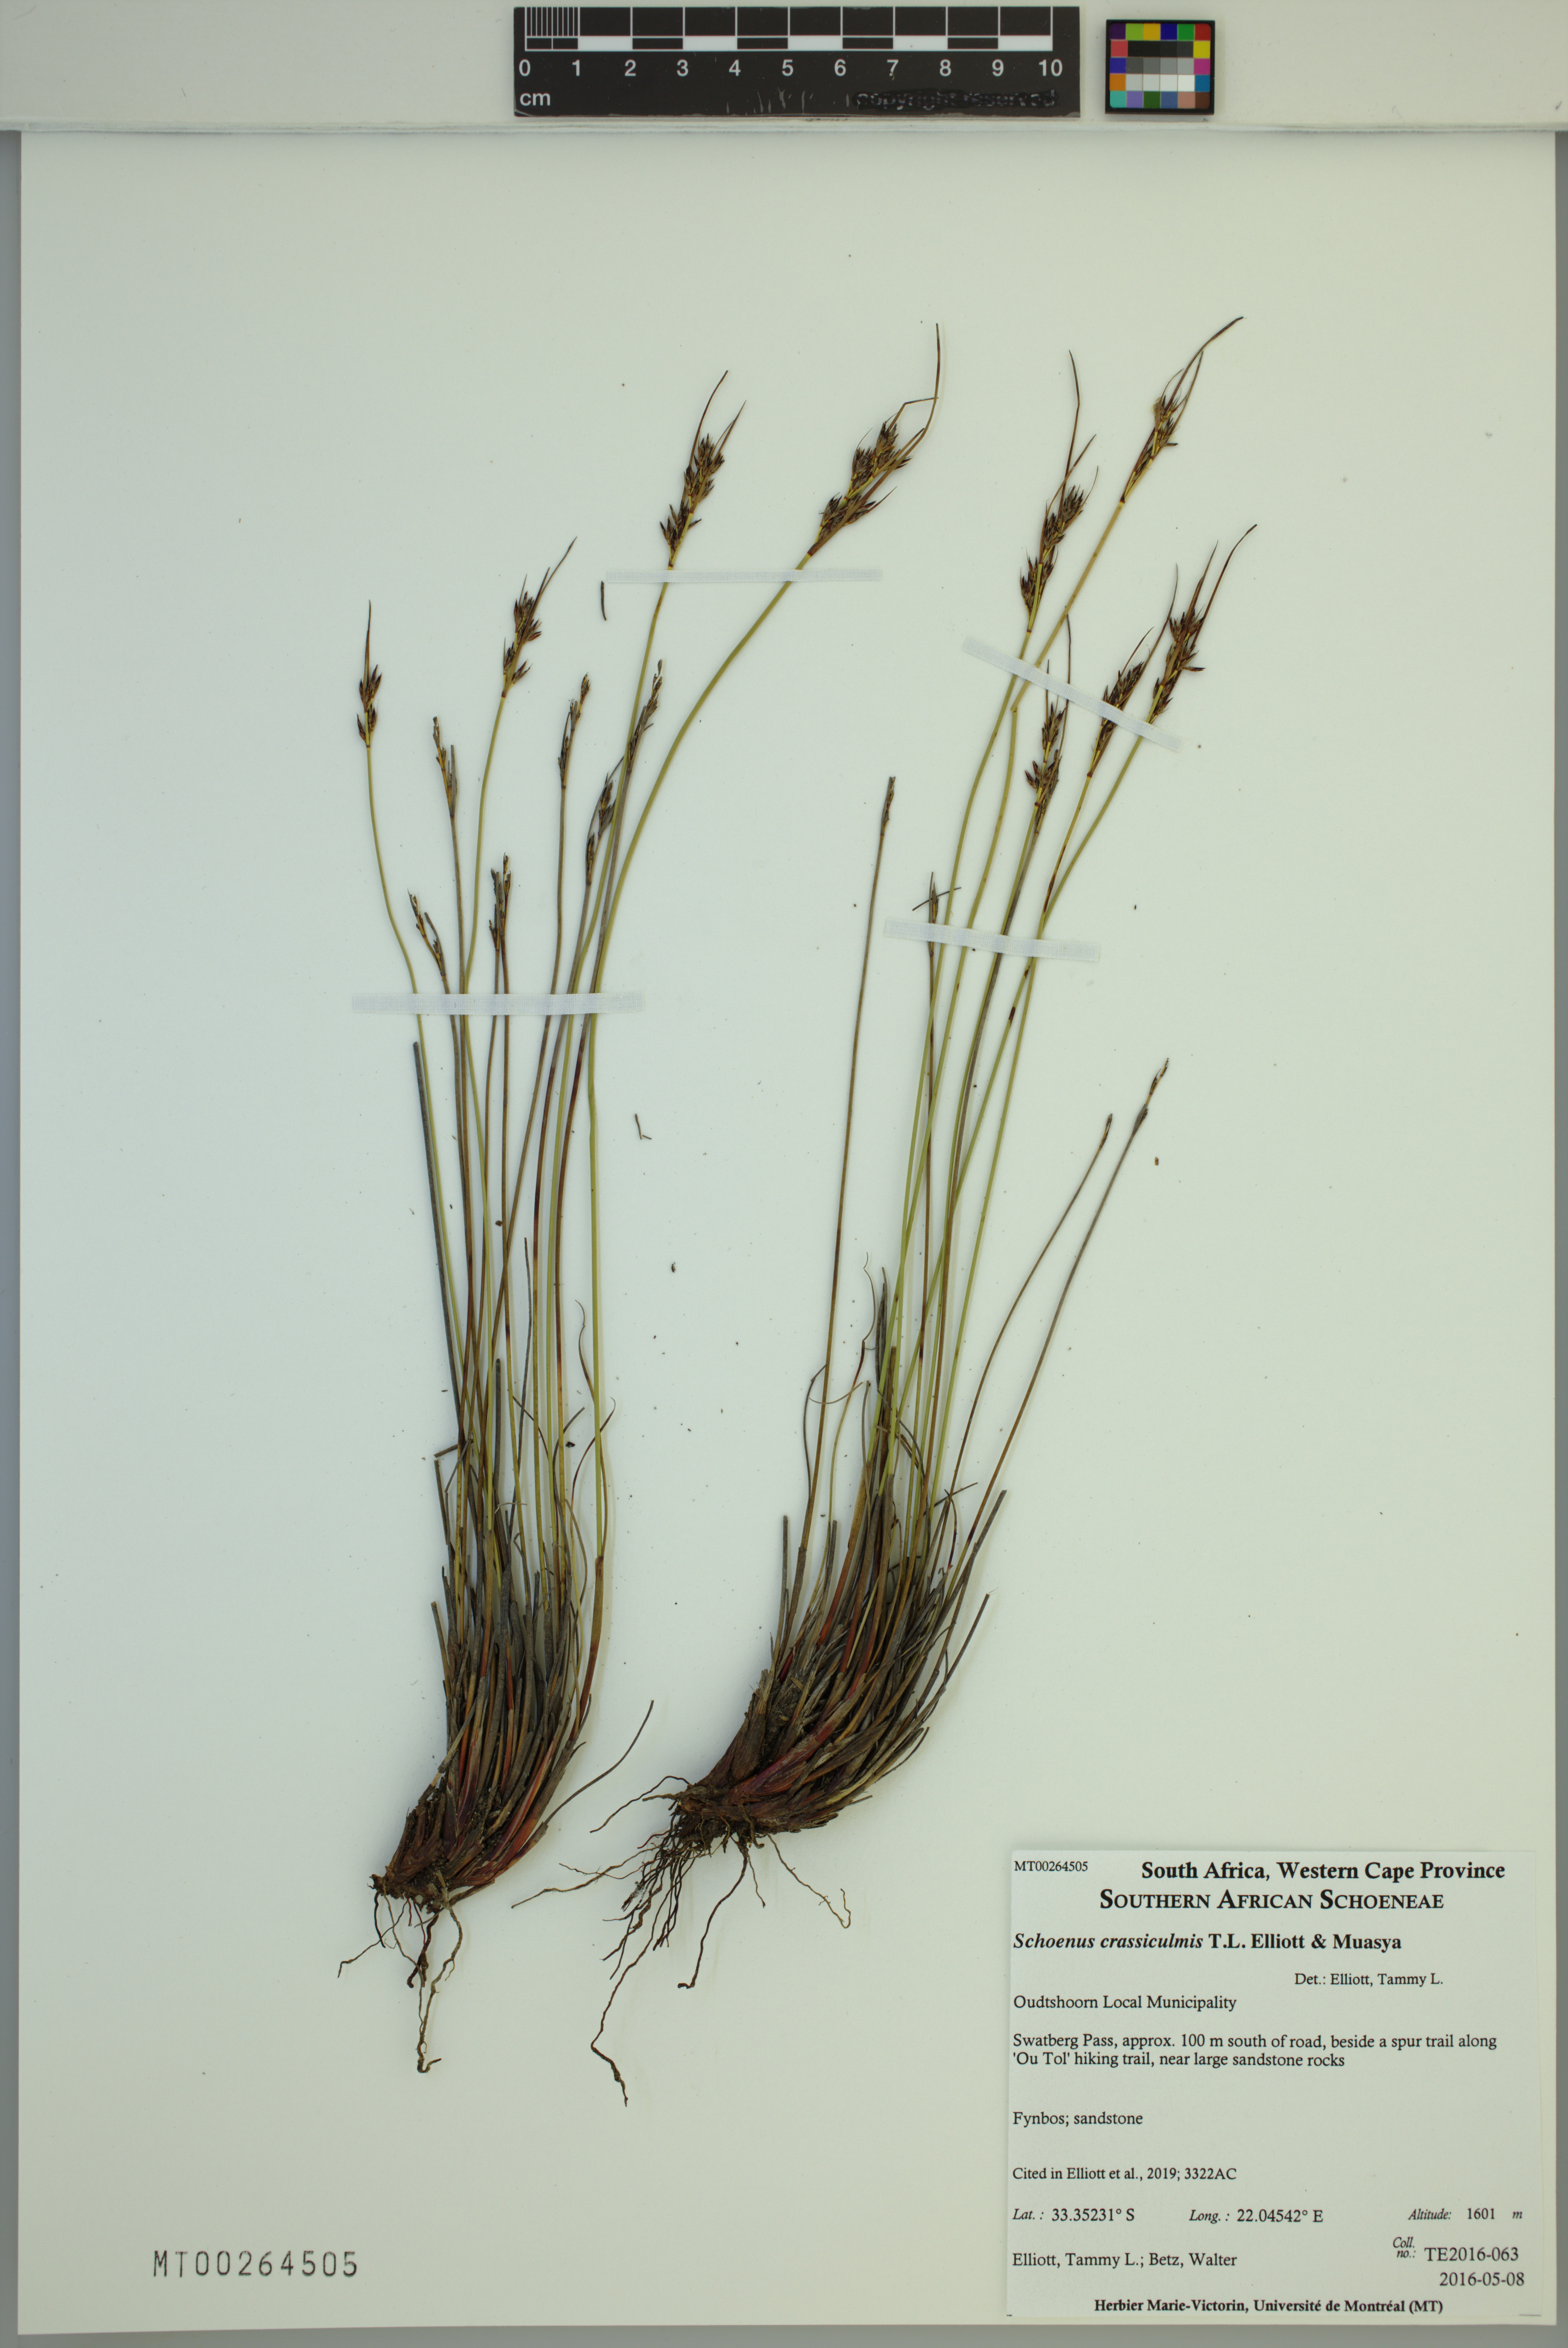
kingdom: Plantae
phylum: Tracheophyta
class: Liliopsida
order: Poales
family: Cyperaceae
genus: Schoenus
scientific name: Schoenus crassiculmis
